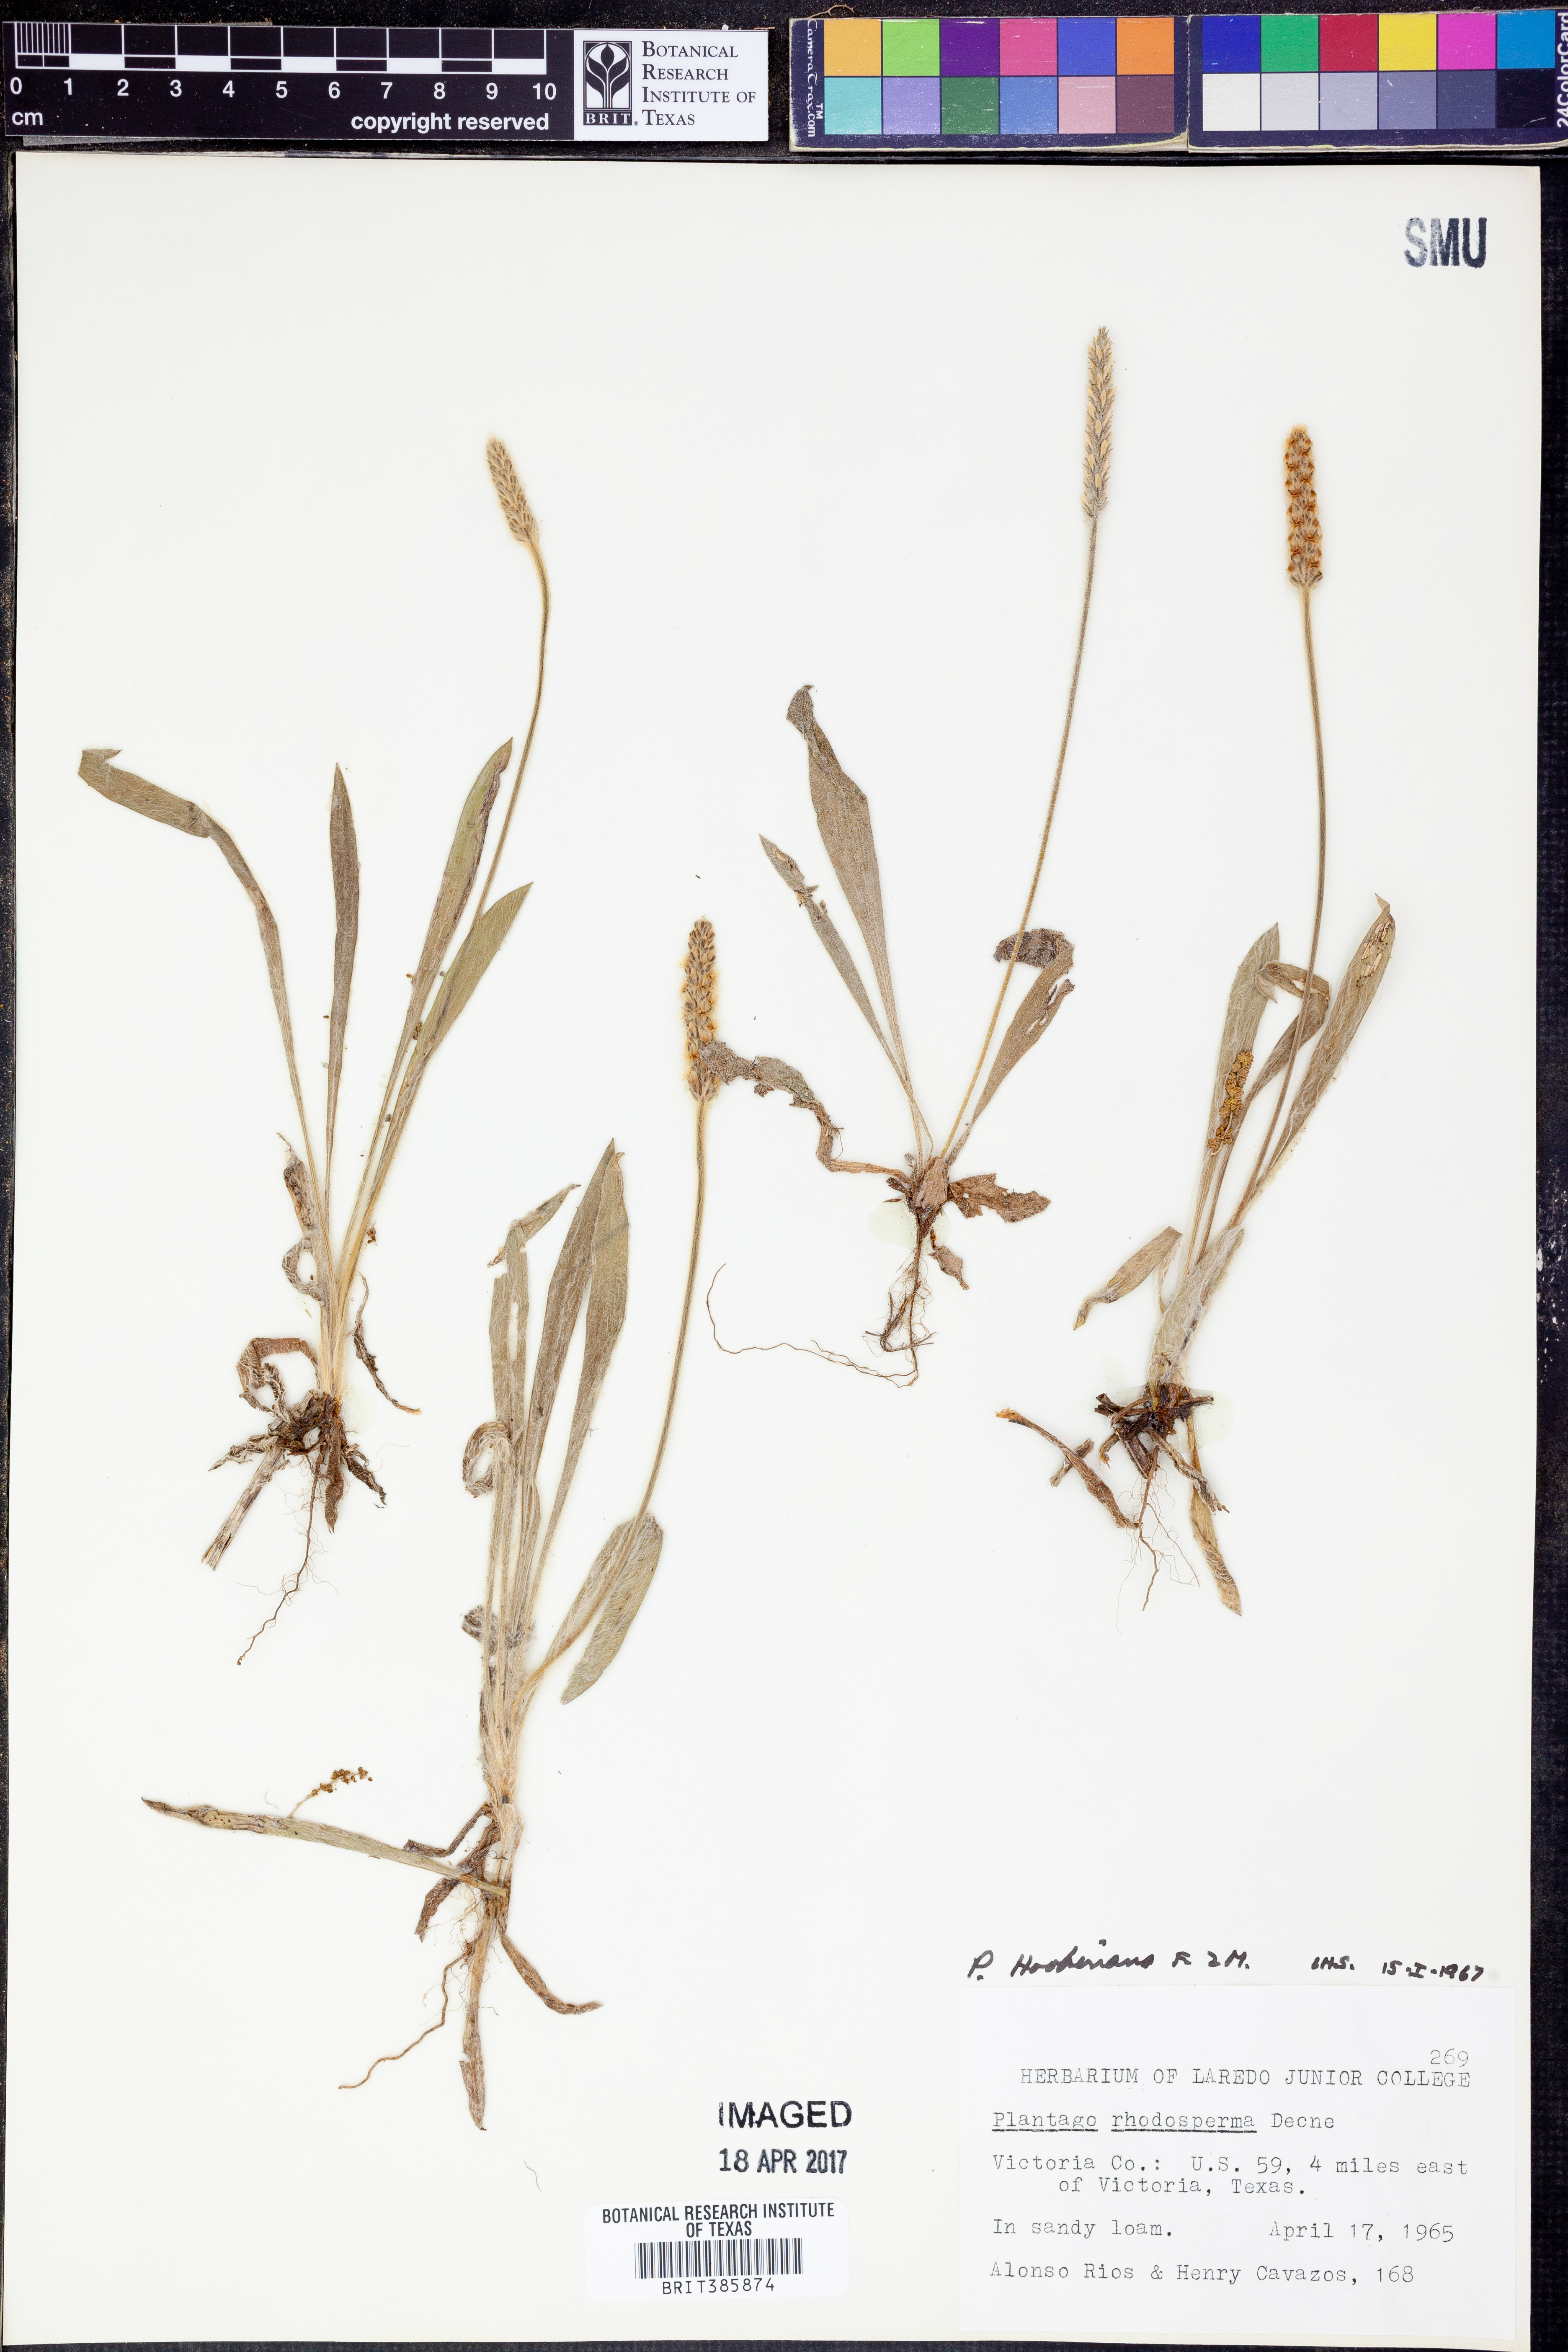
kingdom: Plantae
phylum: Tracheophyta
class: Magnoliopsida
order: Lamiales
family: Plantaginaceae
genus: Plantago
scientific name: Plantago hookeriana
